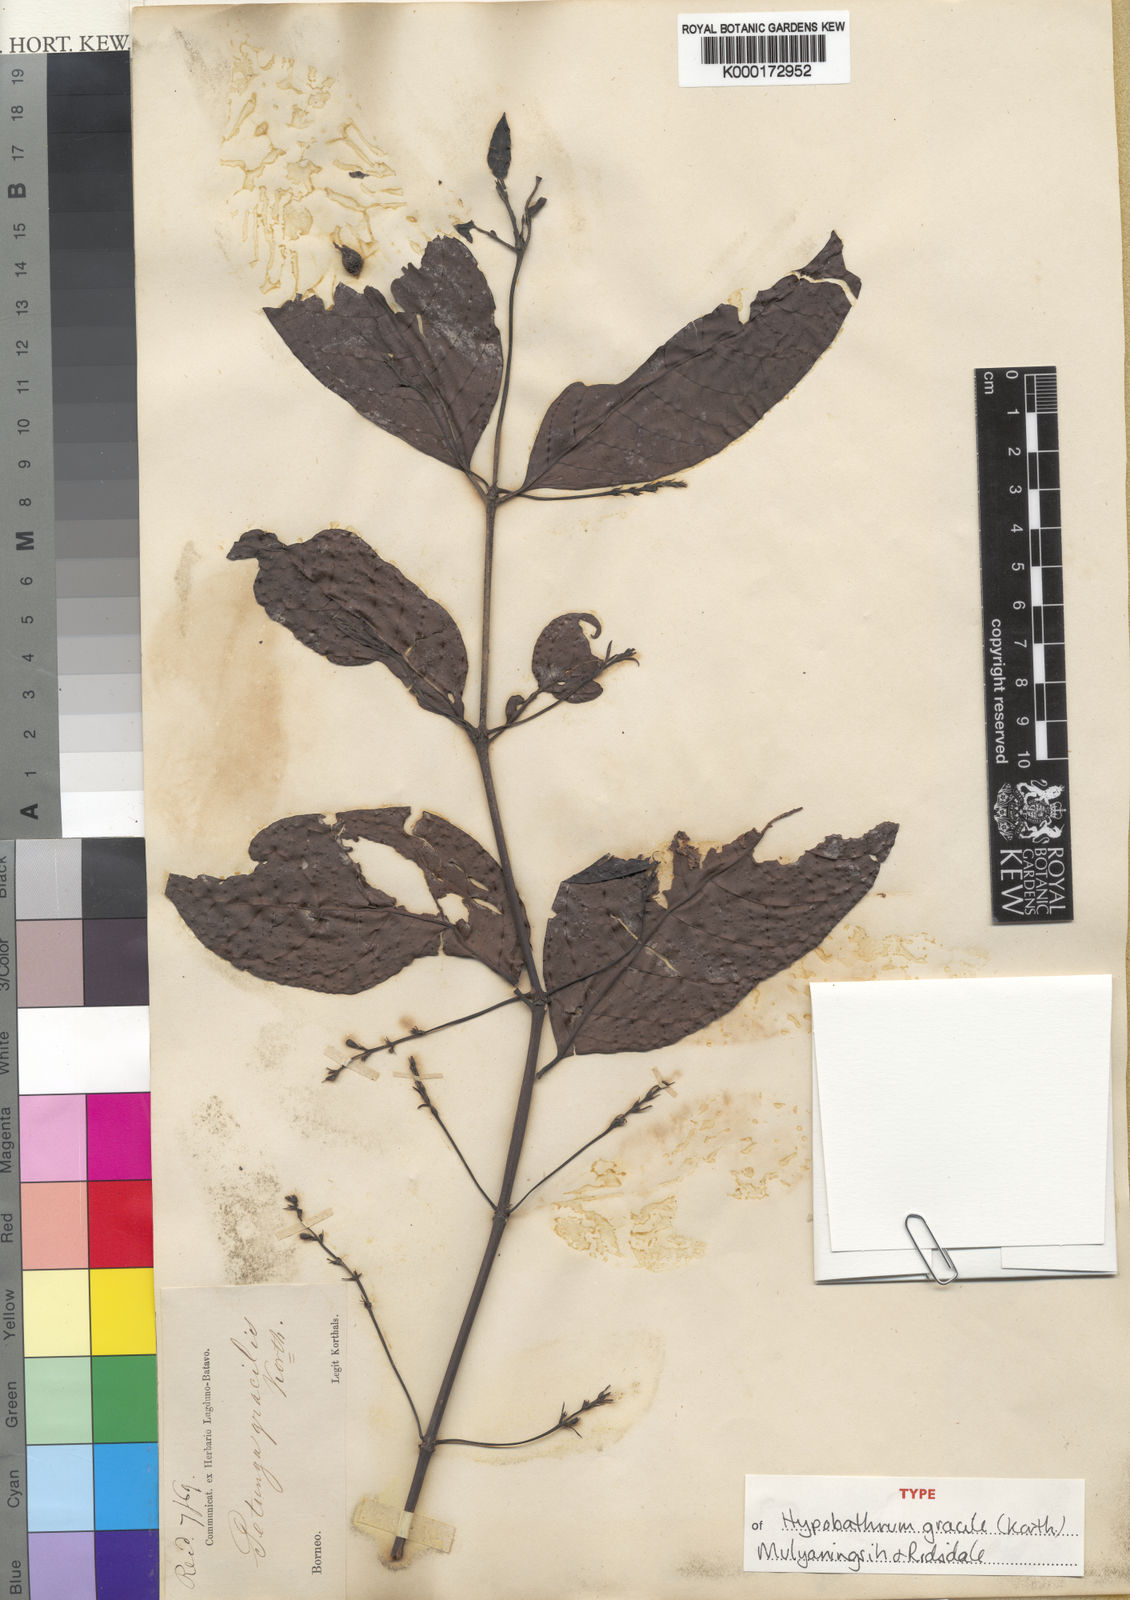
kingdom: Plantae
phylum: Tracheophyta
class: Magnoliopsida
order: Gentianales
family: Rubiaceae
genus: Hypobathrum
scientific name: Hypobathrum gracile
